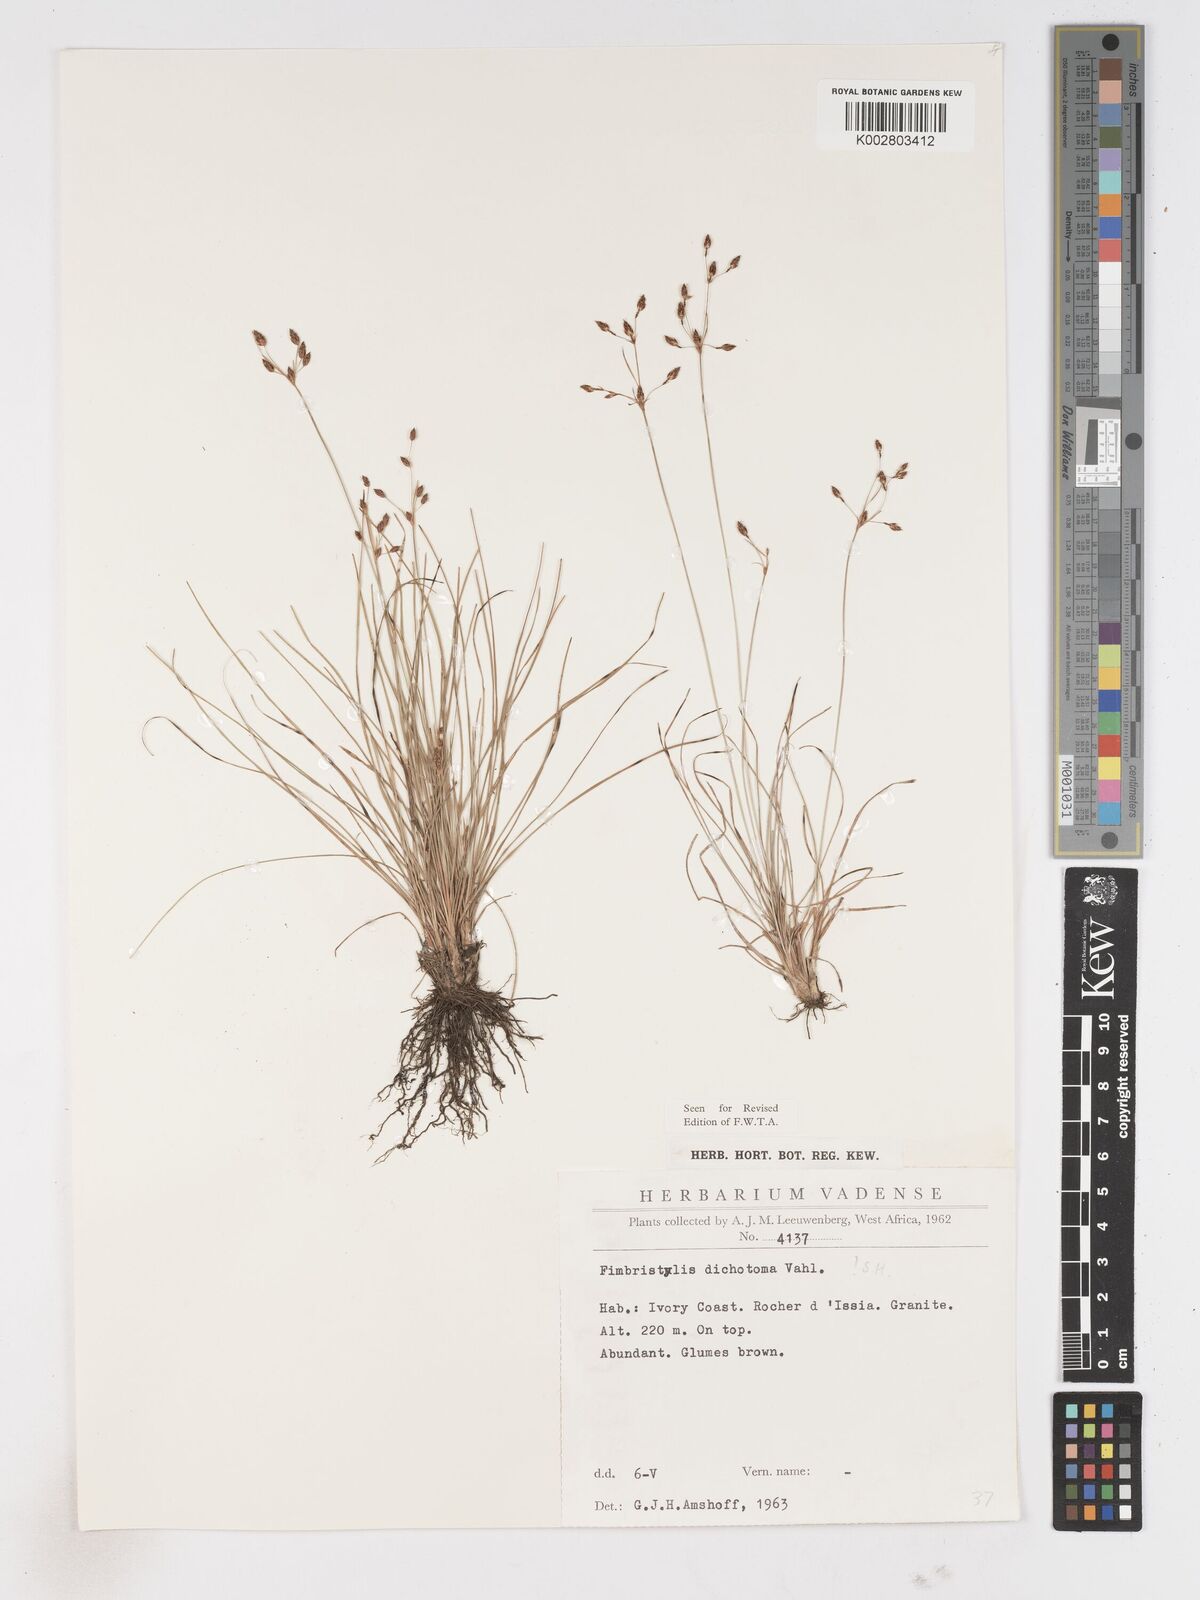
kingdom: Plantae
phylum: Tracheophyta
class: Liliopsida
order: Poales
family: Cyperaceae
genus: Fimbristylis
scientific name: Fimbristylis dichotoma
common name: Forked fimbry
